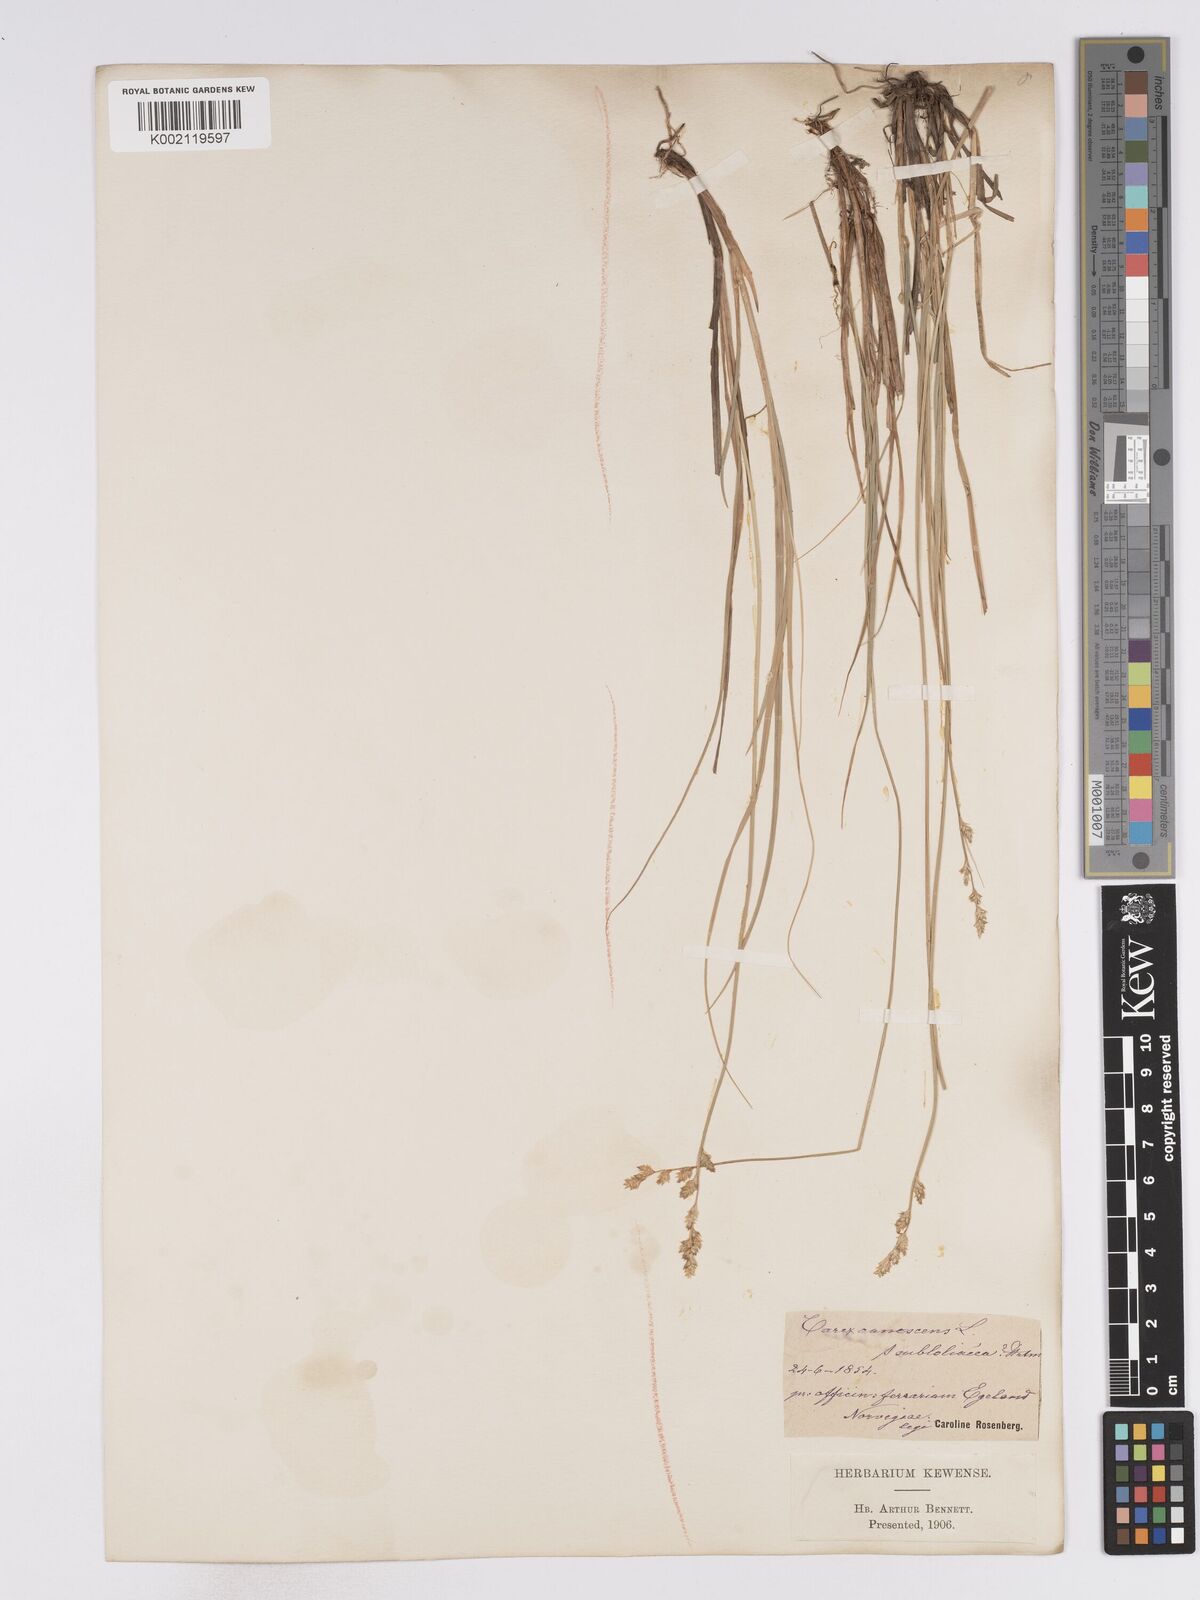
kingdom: Plantae
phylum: Tracheophyta
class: Liliopsida
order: Poales
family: Cyperaceae
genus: Carex
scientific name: Carex curta
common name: White sedge
